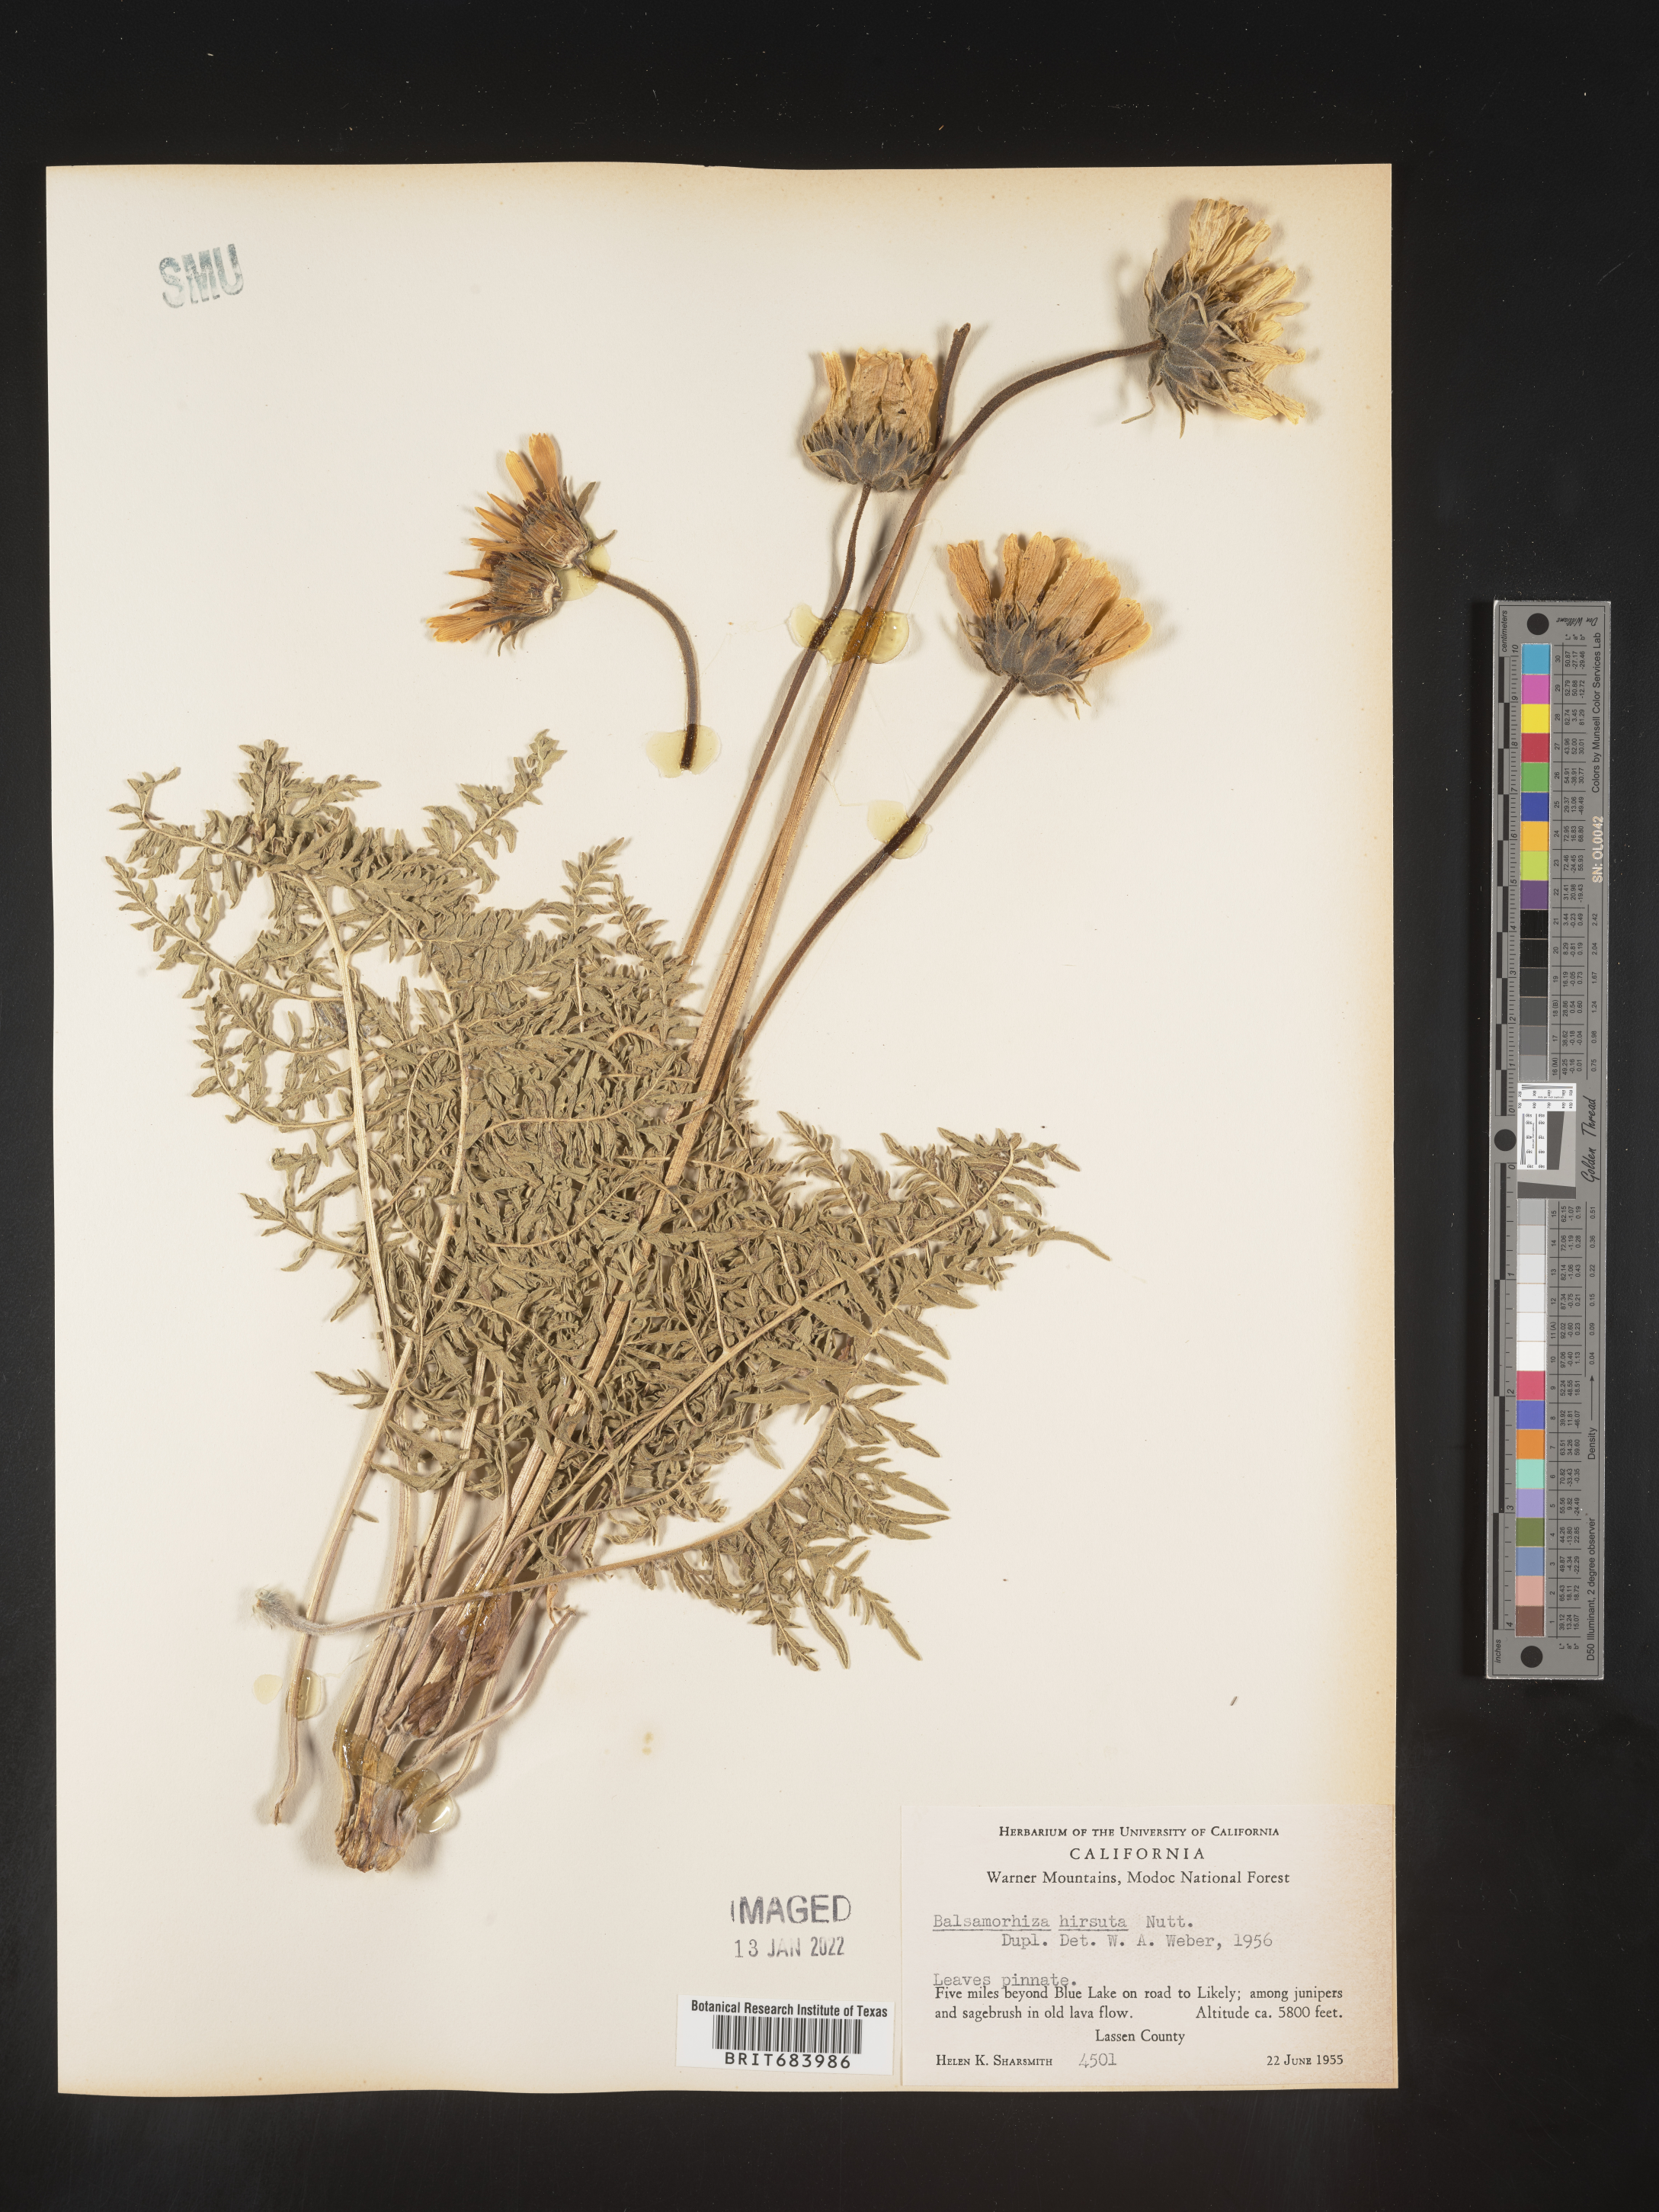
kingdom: Plantae
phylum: Tracheophyta
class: Magnoliopsida
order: Asterales
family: Asteraceae
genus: Balsamorhiza
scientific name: Balsamorhiza hookeri
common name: Hooker's balsamroot
